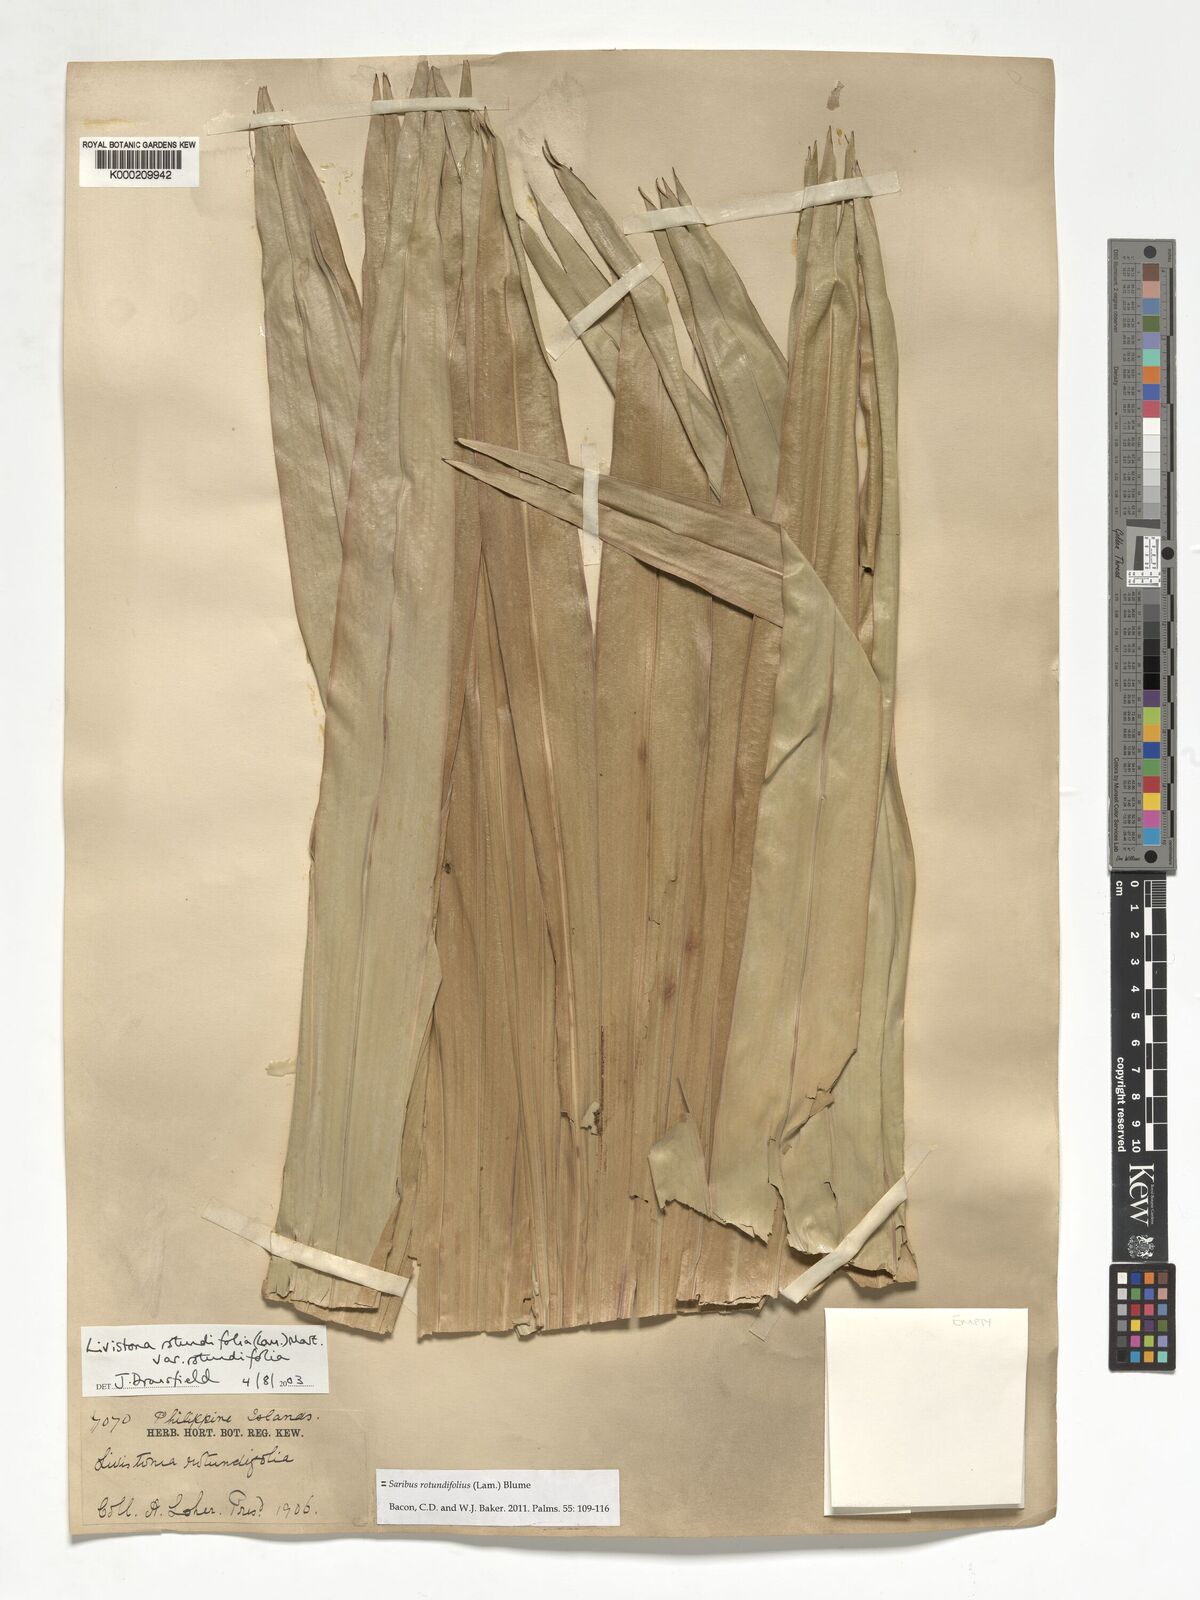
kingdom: Plantae
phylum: Tracheophyta
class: Liliopsida
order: Arecales
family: Arecaceae
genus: Saribus
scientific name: Saribus rotundifolius
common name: Palm
